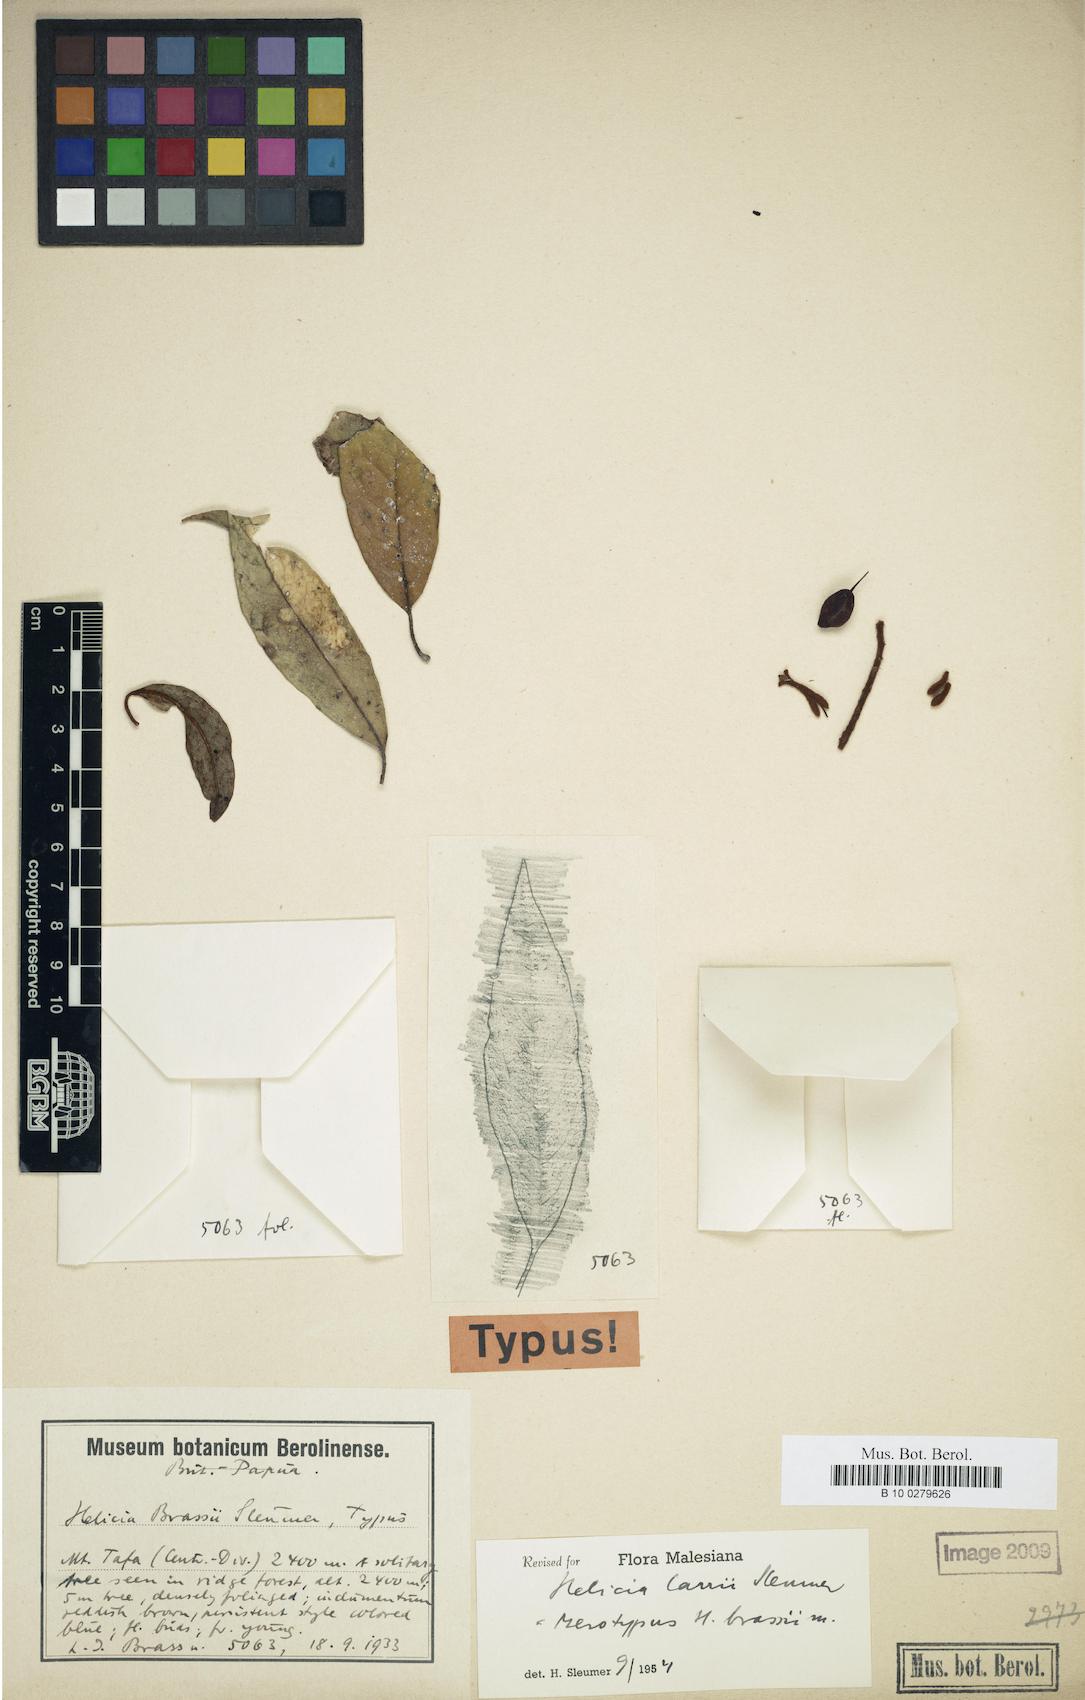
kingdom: Plantae
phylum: Tracheophyta
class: Magnoliopsida
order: Proteales
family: Proteaceae
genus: Helicia
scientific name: Helicia carrii
